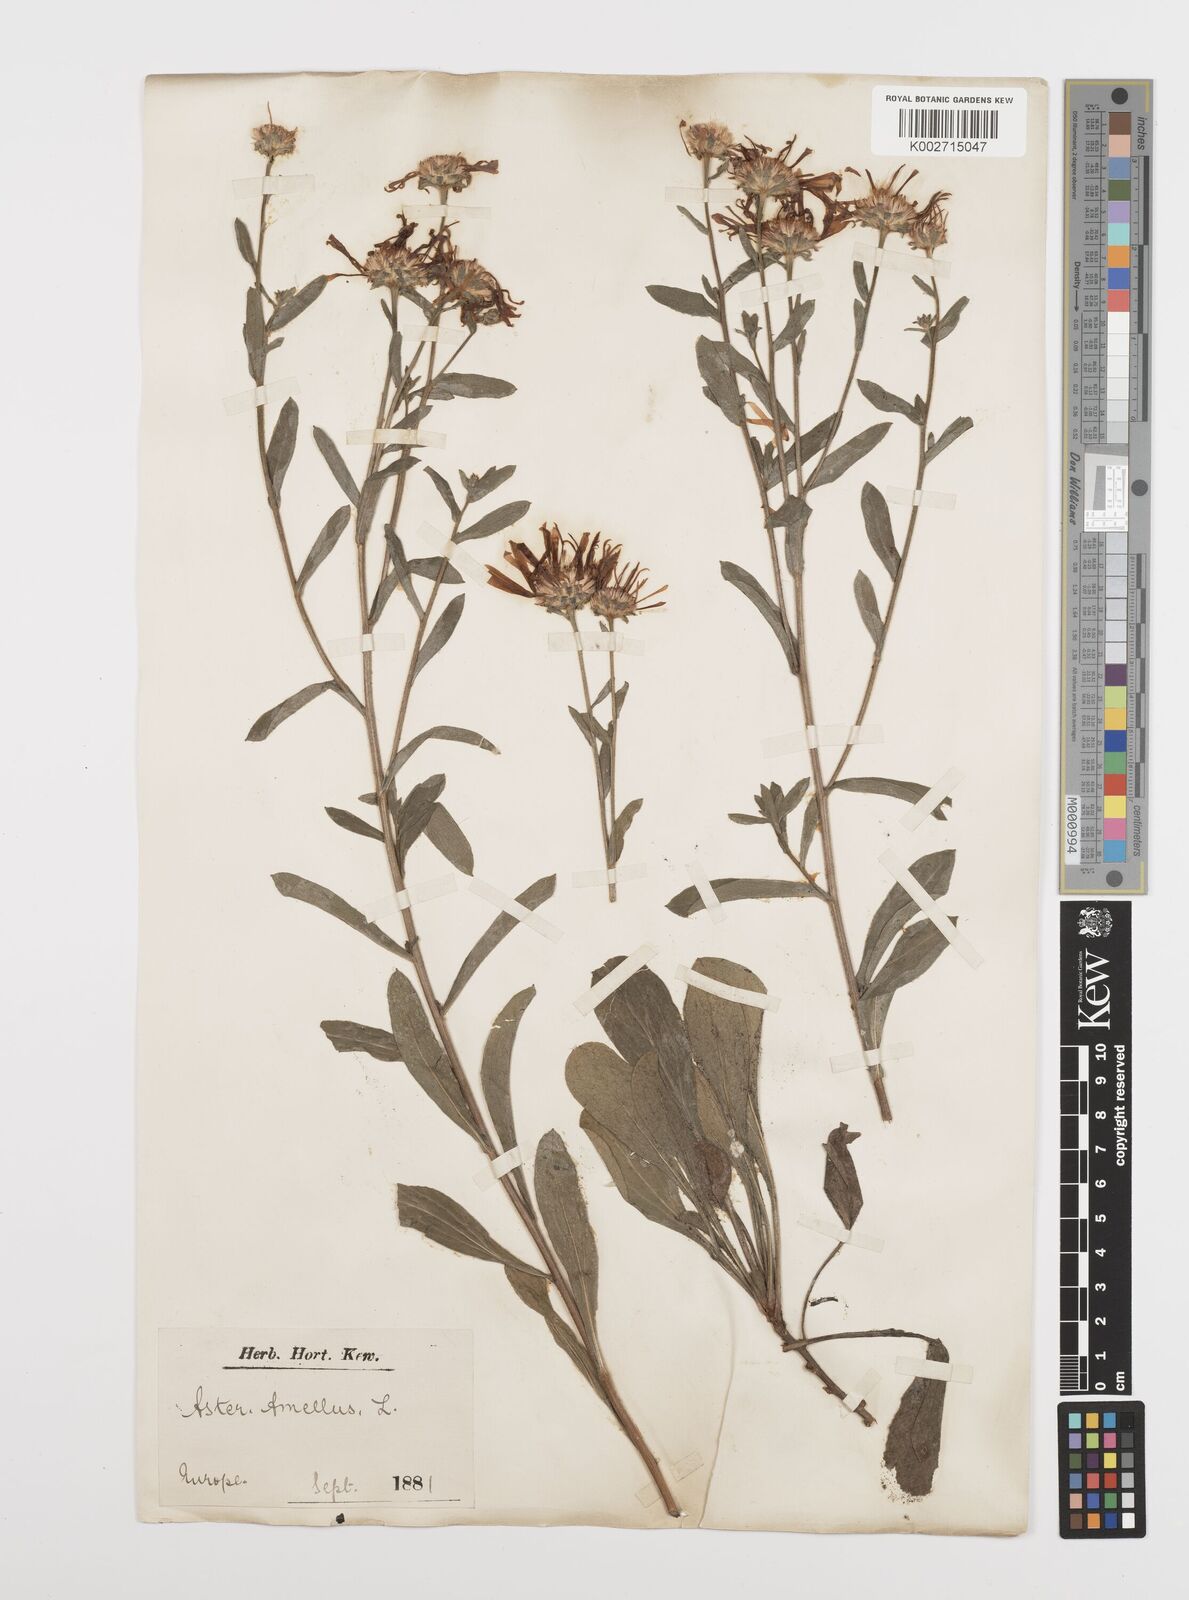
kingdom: Plantae
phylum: Tracheophyta
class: Magnoliopsida
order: Asterales
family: Asteraceae
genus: Aster
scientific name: Aster amellus
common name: European michaelmas daisy
